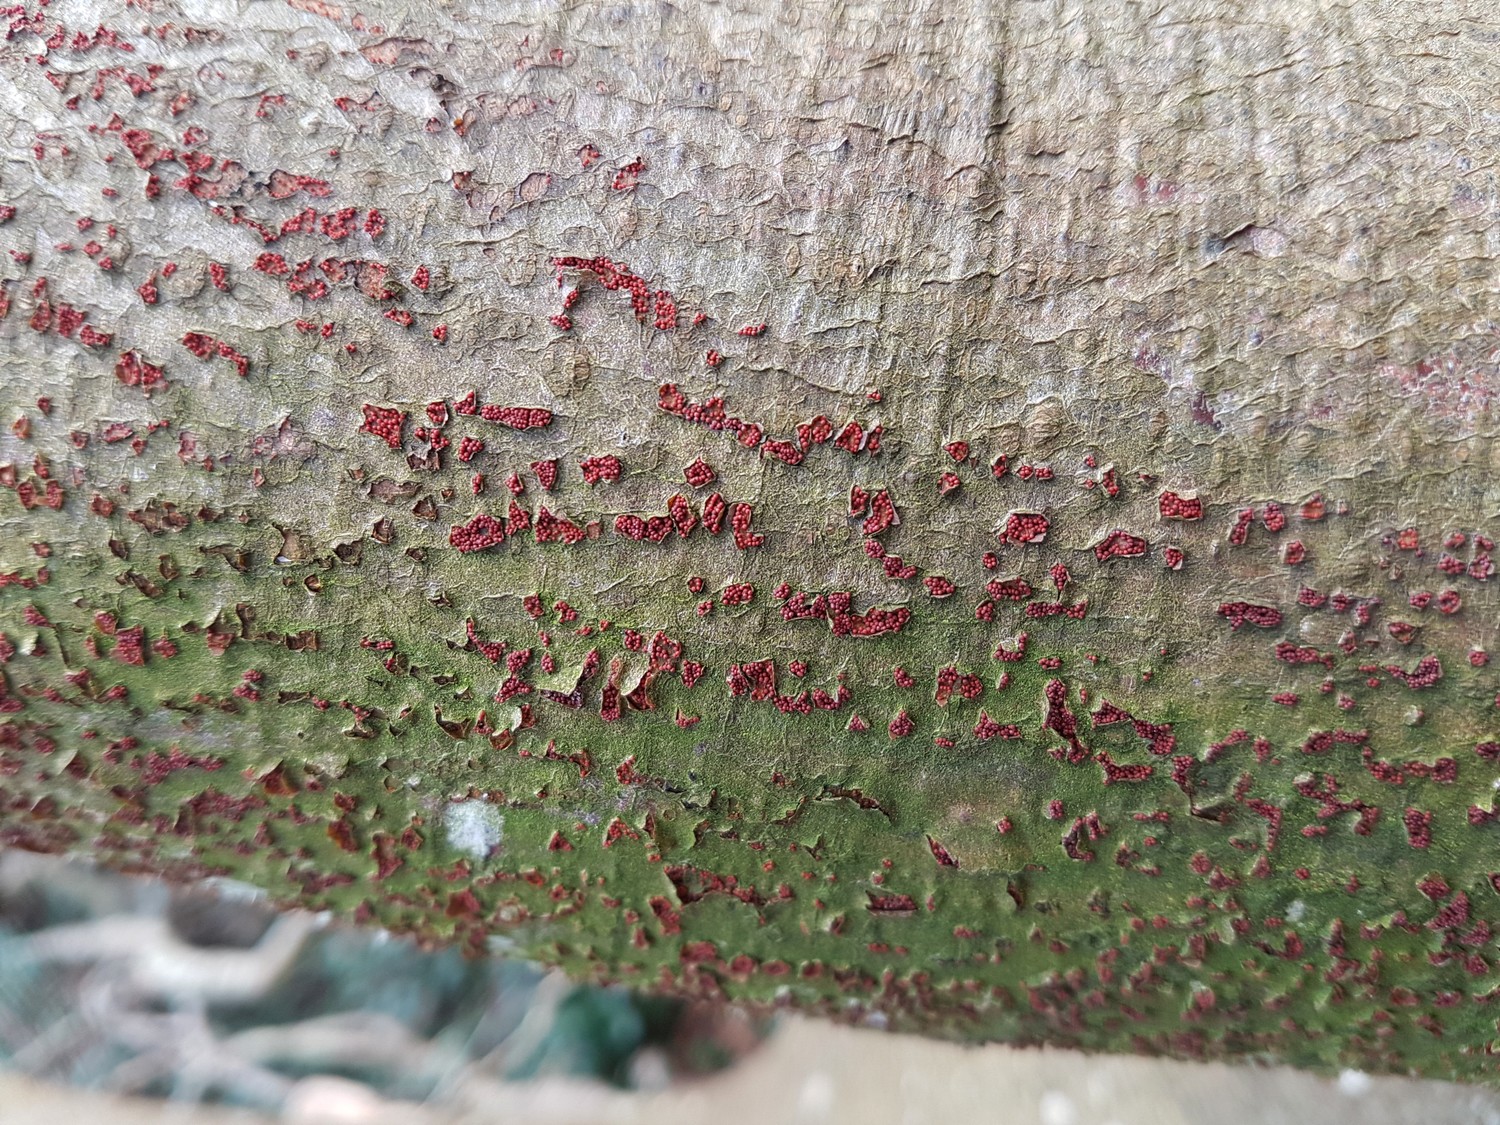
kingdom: Fungi
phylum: Ascomycota
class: Sordariomycetes
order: Hypocreales
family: Nectriaceae
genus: Neonectria
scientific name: Neonectria coccinea
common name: bøgebark-cinnobersvamp
